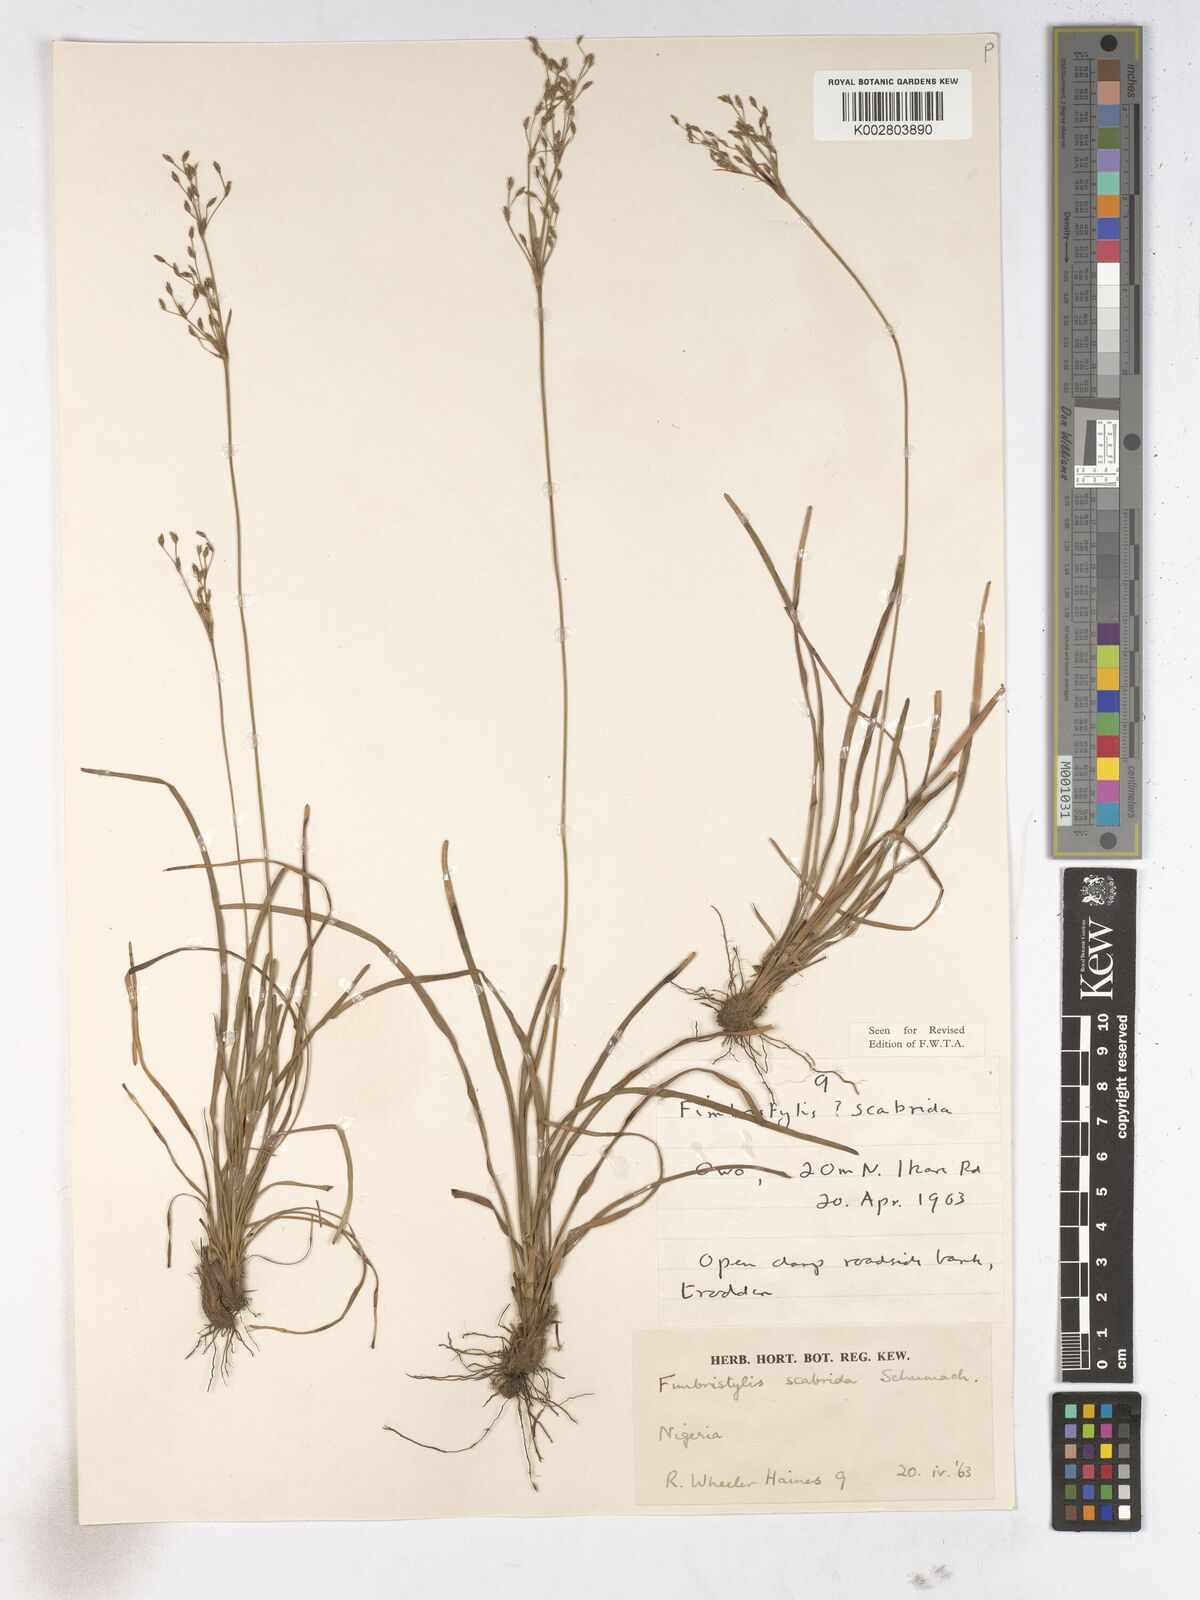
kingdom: Plantae
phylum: Tracheophyta
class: Liliopsida
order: Poales
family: Cyperaceae
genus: Fimbristylis
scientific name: Fimbristylis scabrida
